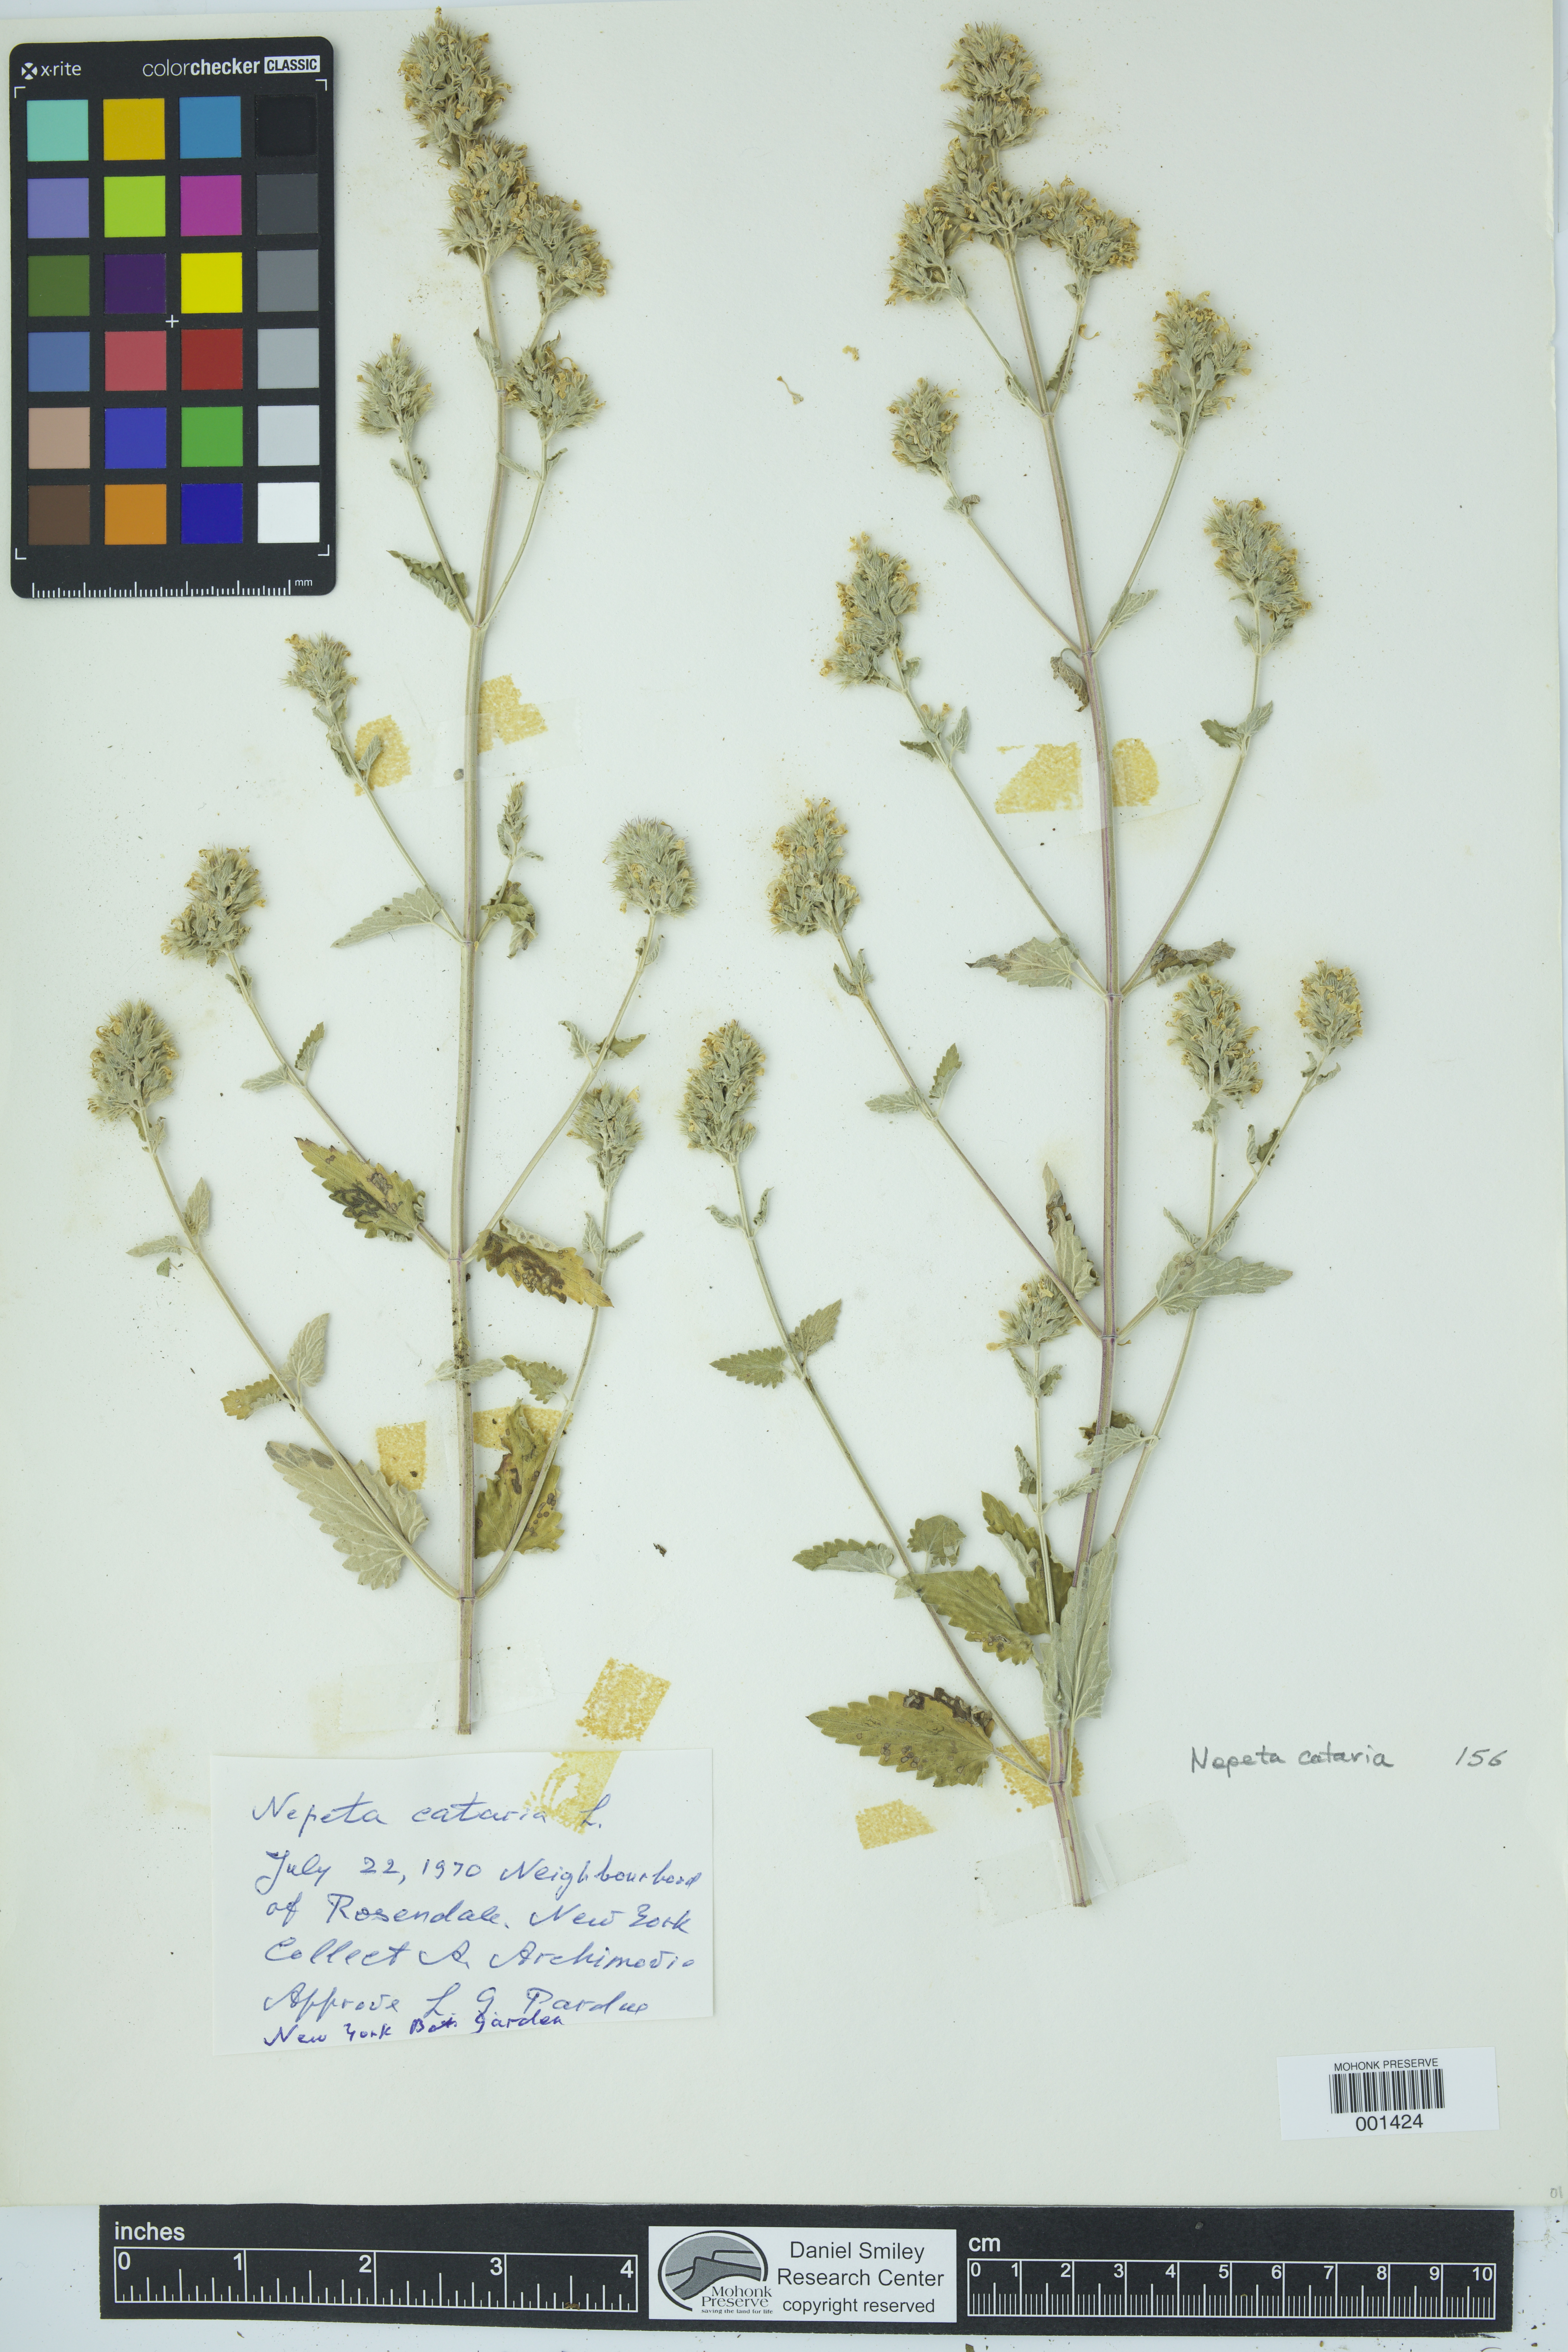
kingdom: Plantae
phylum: Tracheophyta
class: Magnoliopsida
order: Lamiales
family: Lamiaceae
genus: Nepeta
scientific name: Nepeta cataria
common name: Catnip
